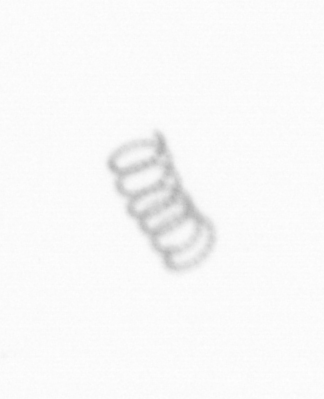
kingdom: Chromista
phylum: Ochrophyta
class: Bacillariophyceae
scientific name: Bacillariophyceae
